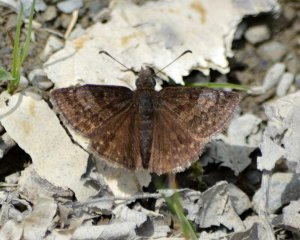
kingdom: Animalia
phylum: Arthropoda
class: Insecta
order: Lepidoptera
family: Hesperiidae
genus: Erynnis
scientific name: Erynnis icelus
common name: Dreamy Duskywing
